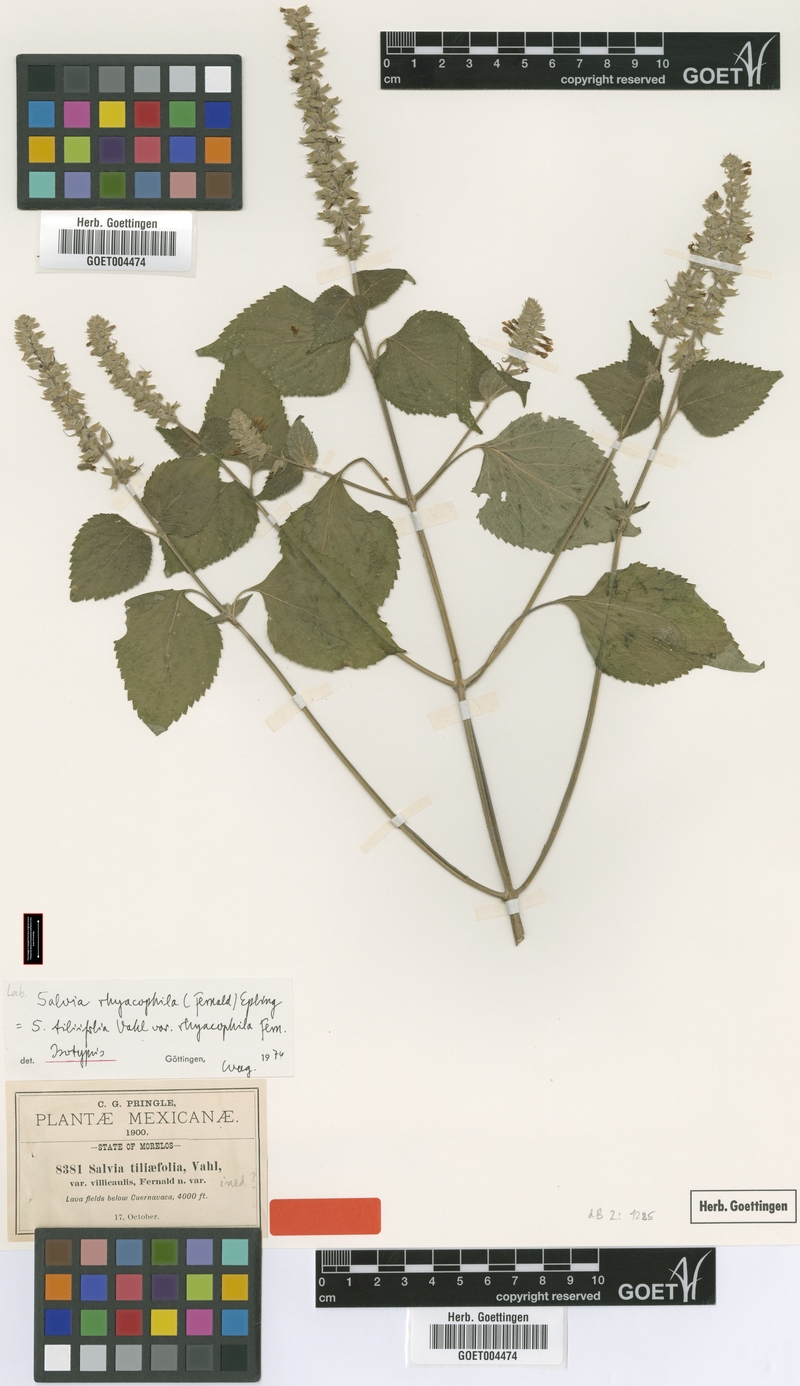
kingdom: Plantae
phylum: Tracheophyta
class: Magnoliopsida
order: Lamiales
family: Lamiaceae
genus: Salvia
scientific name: Salvia leptostachys
